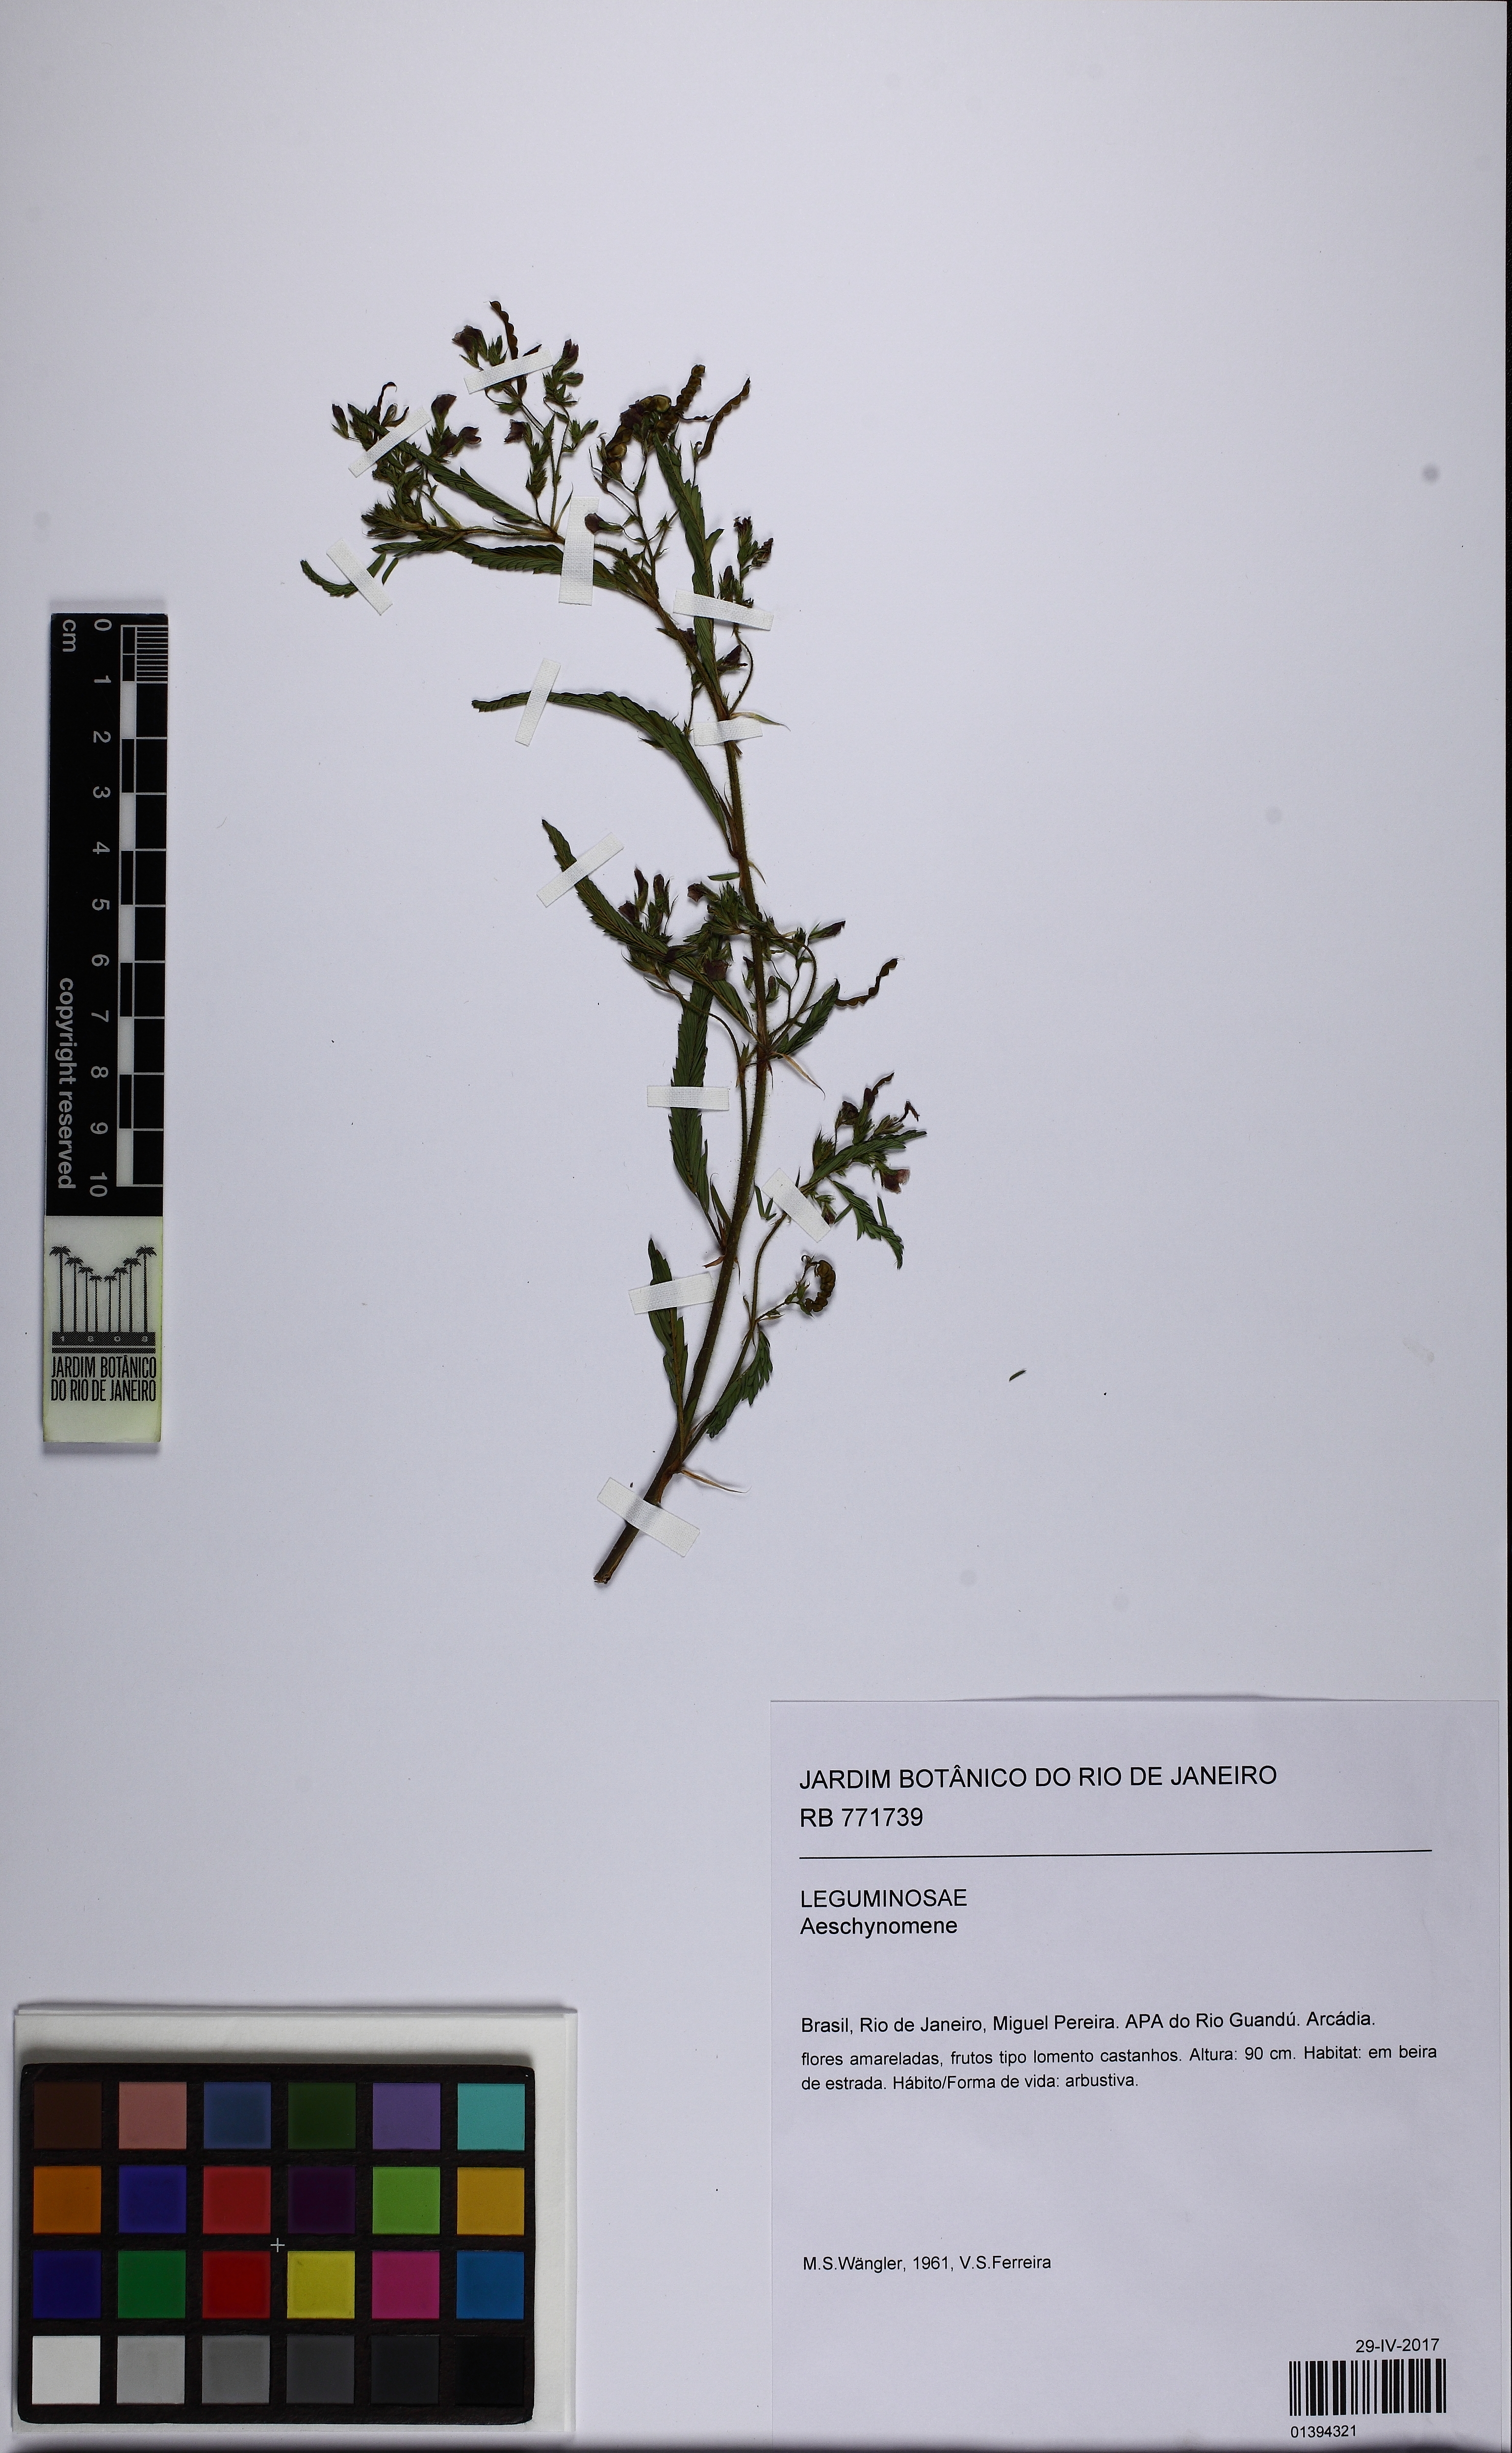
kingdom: Plantae
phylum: Tracheophyta
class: Magnoliopsida
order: Fabales
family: Fabaceae
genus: Aeschynomene
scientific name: Aeschynomene
